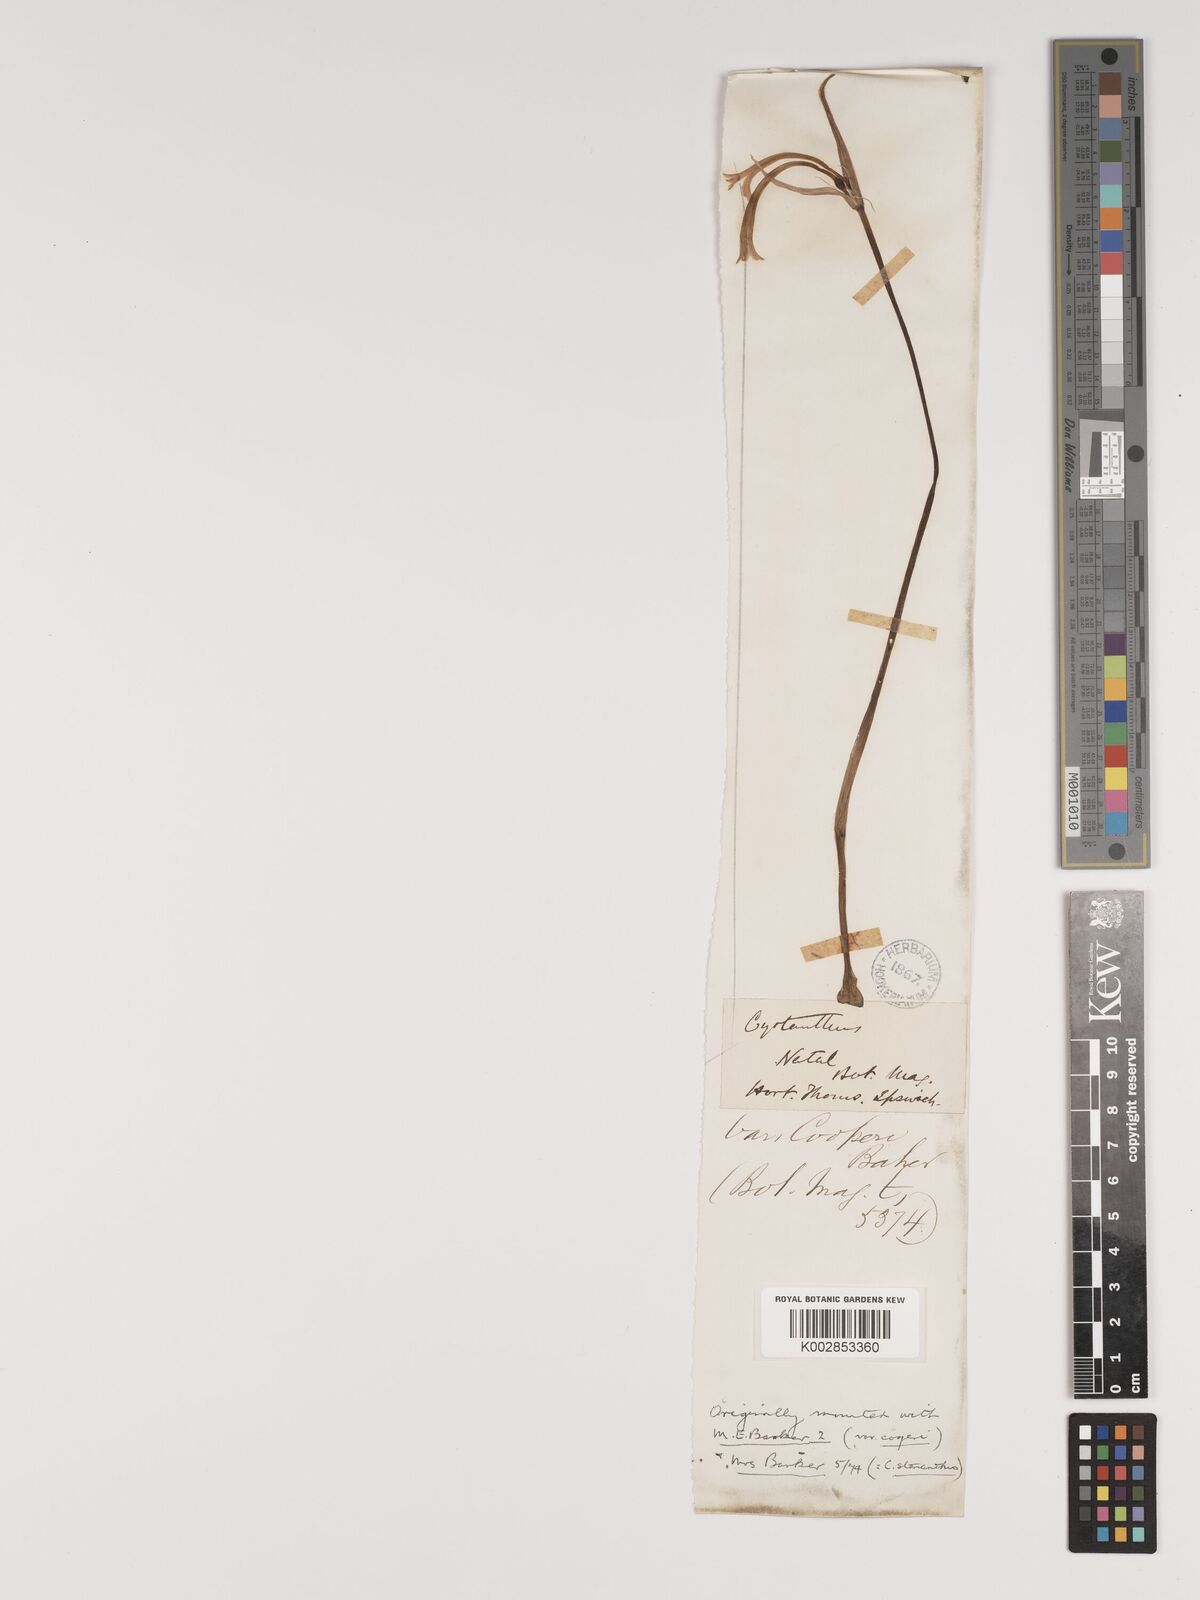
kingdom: Plantae
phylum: Tracheophyta
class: Liliopsida
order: Asparagales
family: Amaryllidaceae
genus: Cyrtanthus
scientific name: Cyrtanthus
